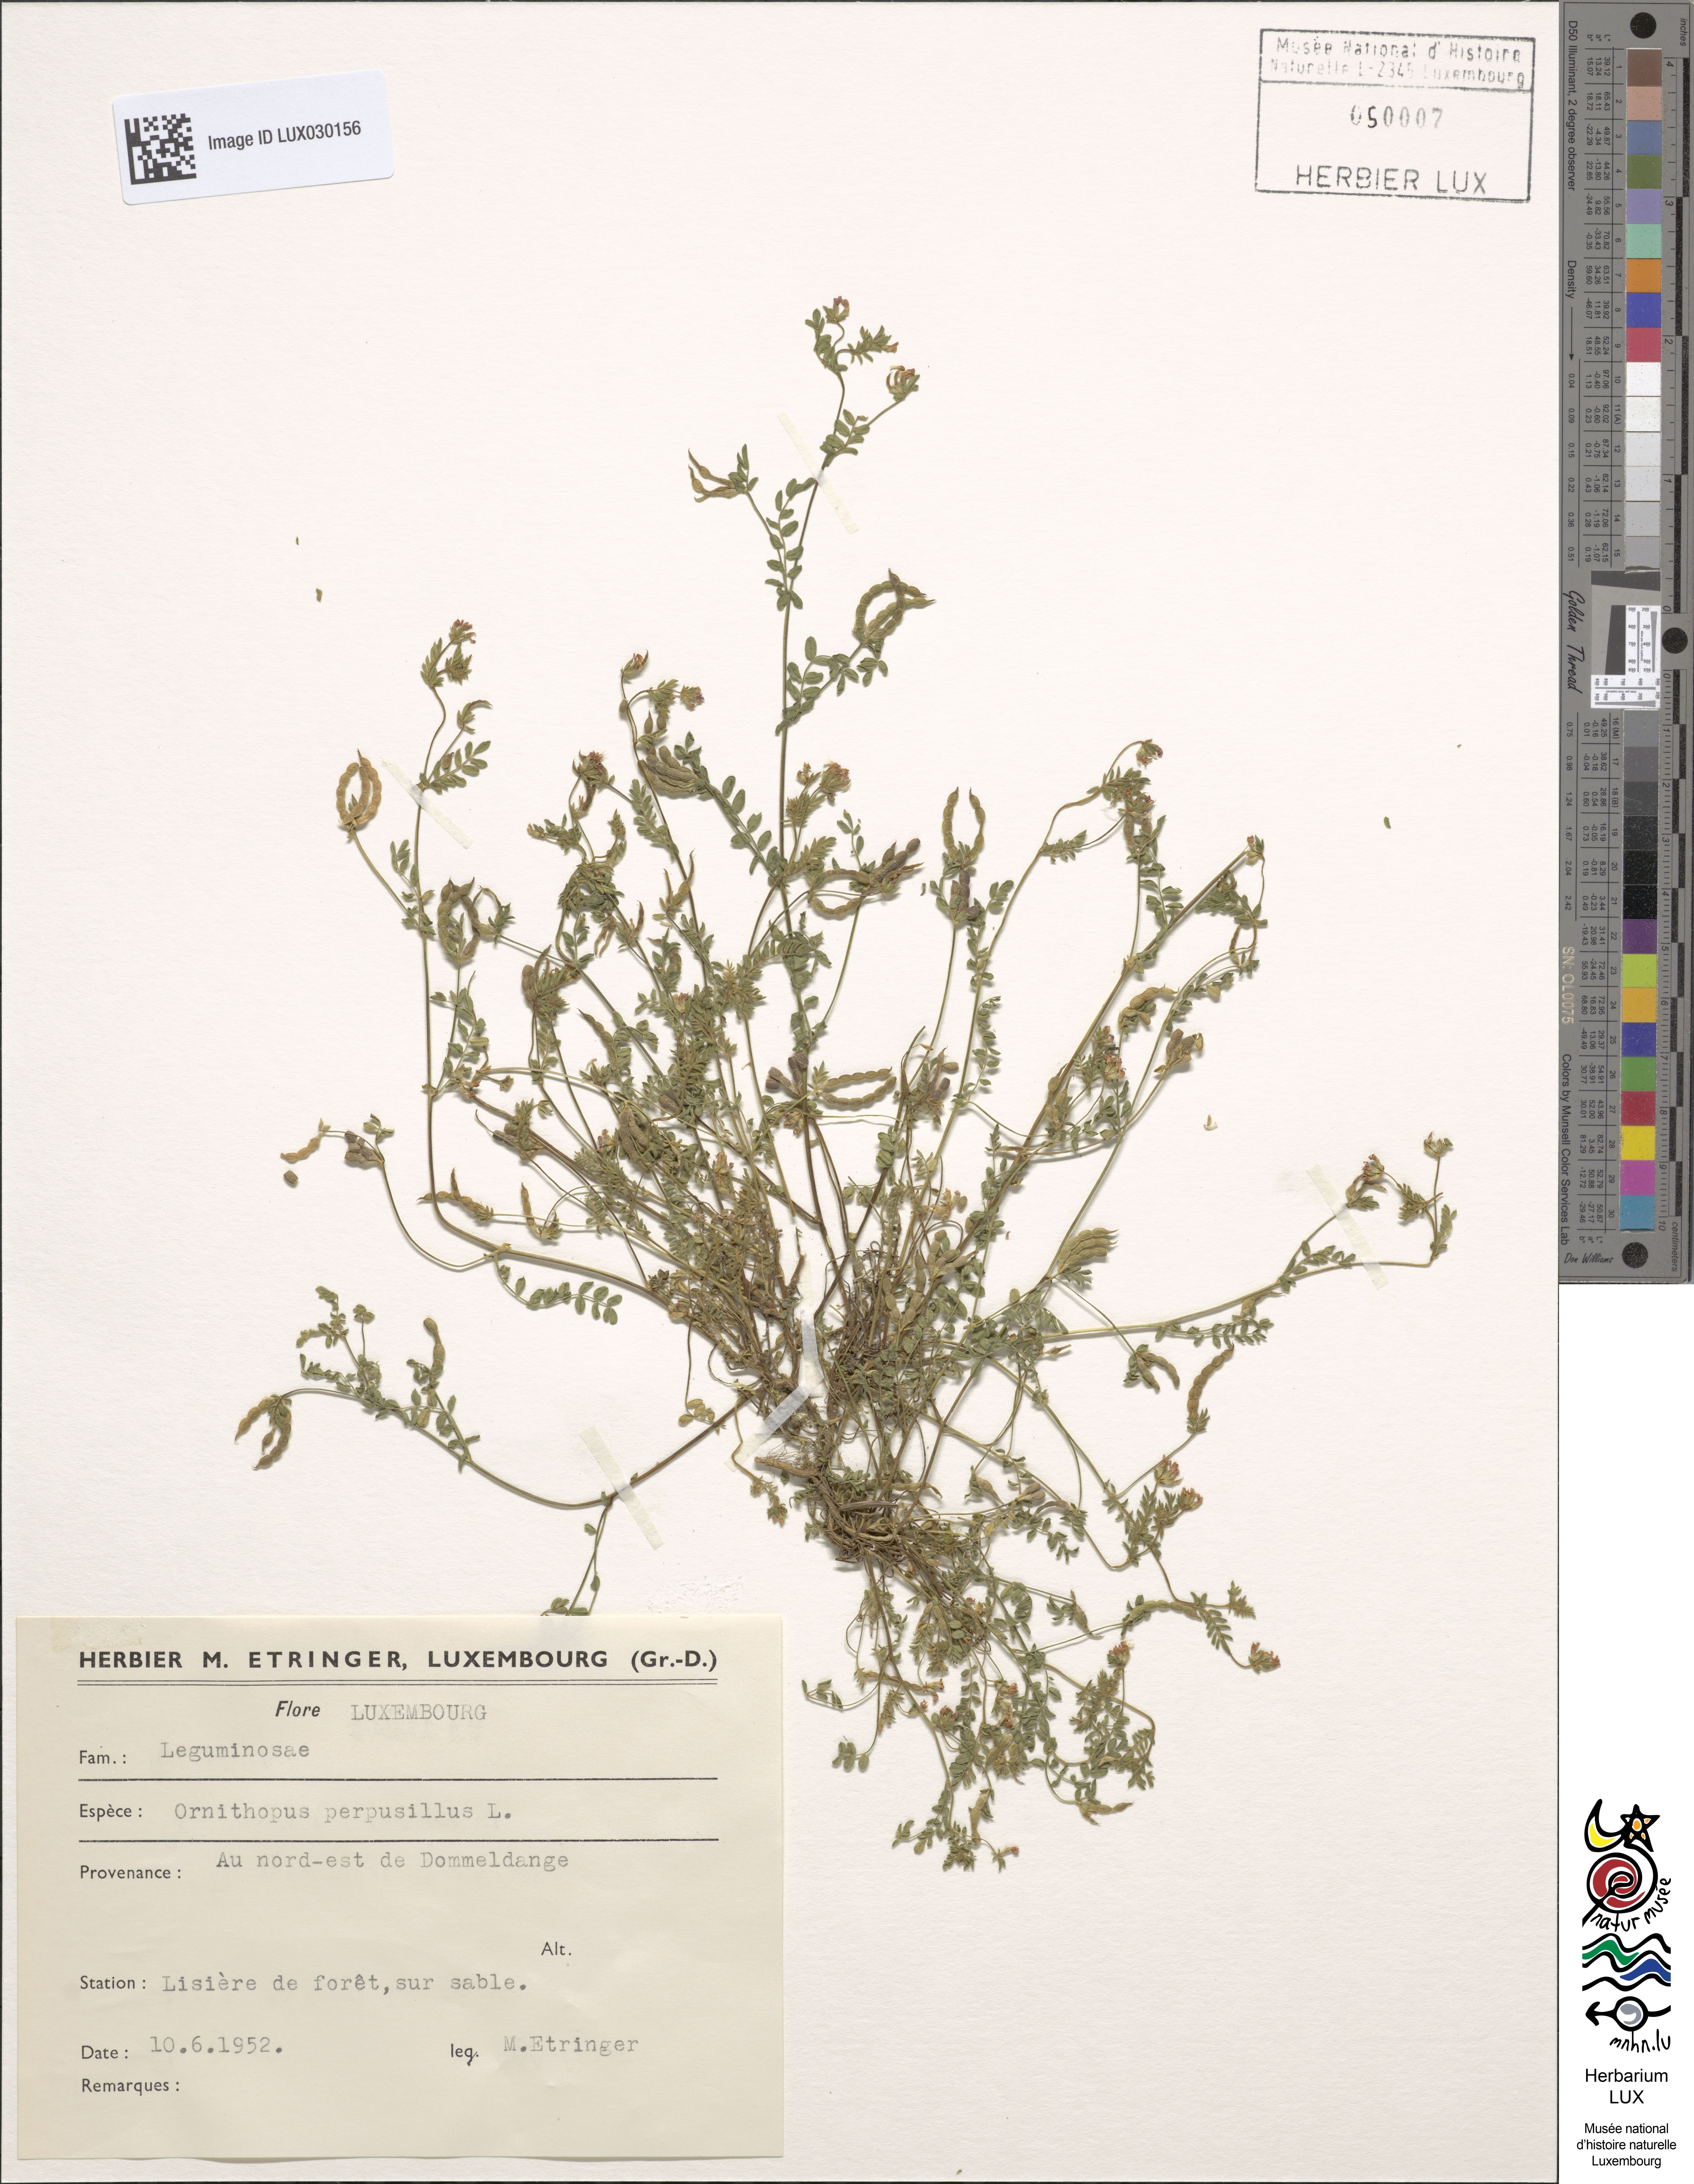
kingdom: Plantae
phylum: Tracheophyta
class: Magnoliopsida
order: Fabales
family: Fabaceae
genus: Ornithopus
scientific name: Ornithopus perpusillus
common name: Bird's-foot
